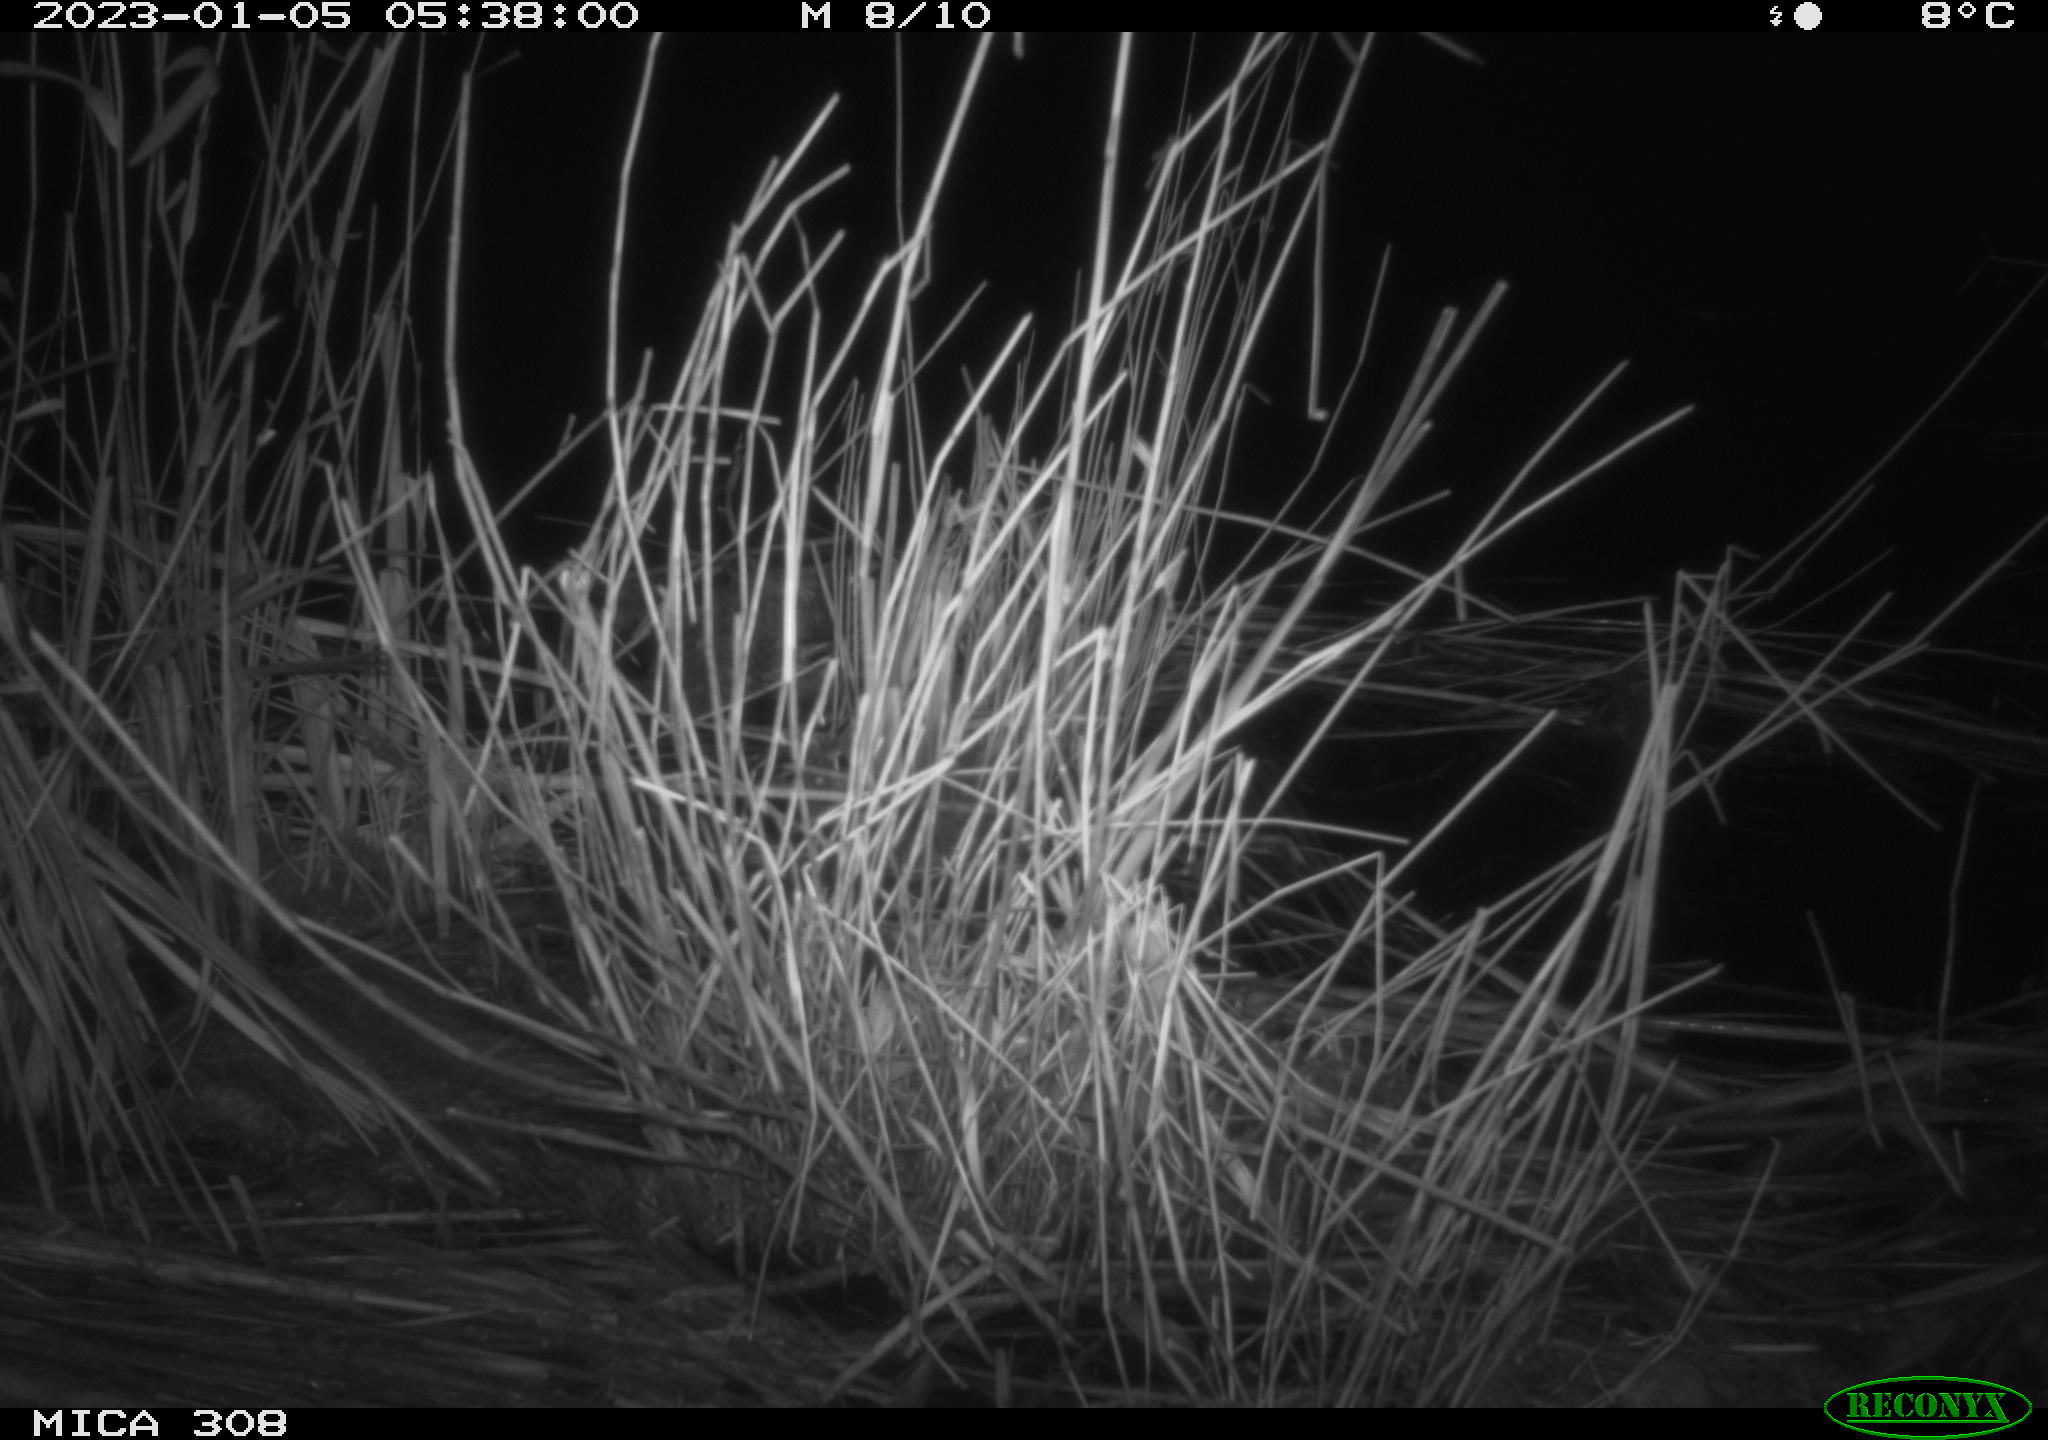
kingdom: Animalia
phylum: Chordata
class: Mammalia
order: Rodentia
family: Muridae
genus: Rattus
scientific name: Rattus norvegicus
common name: Brown rat
